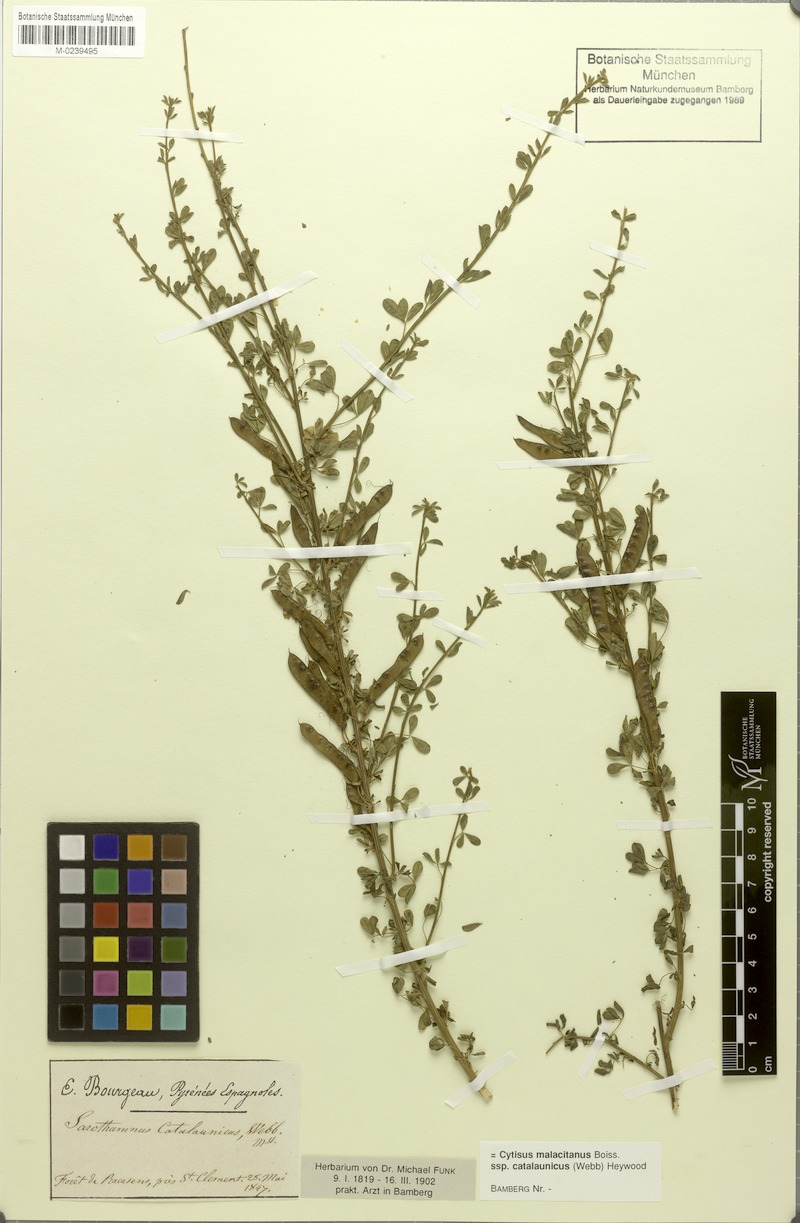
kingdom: Plantae
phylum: Tracheophyta
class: Magnoliopsida
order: Fabales
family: Fabaceae
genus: Cytisus
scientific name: Cytisus arboreus
